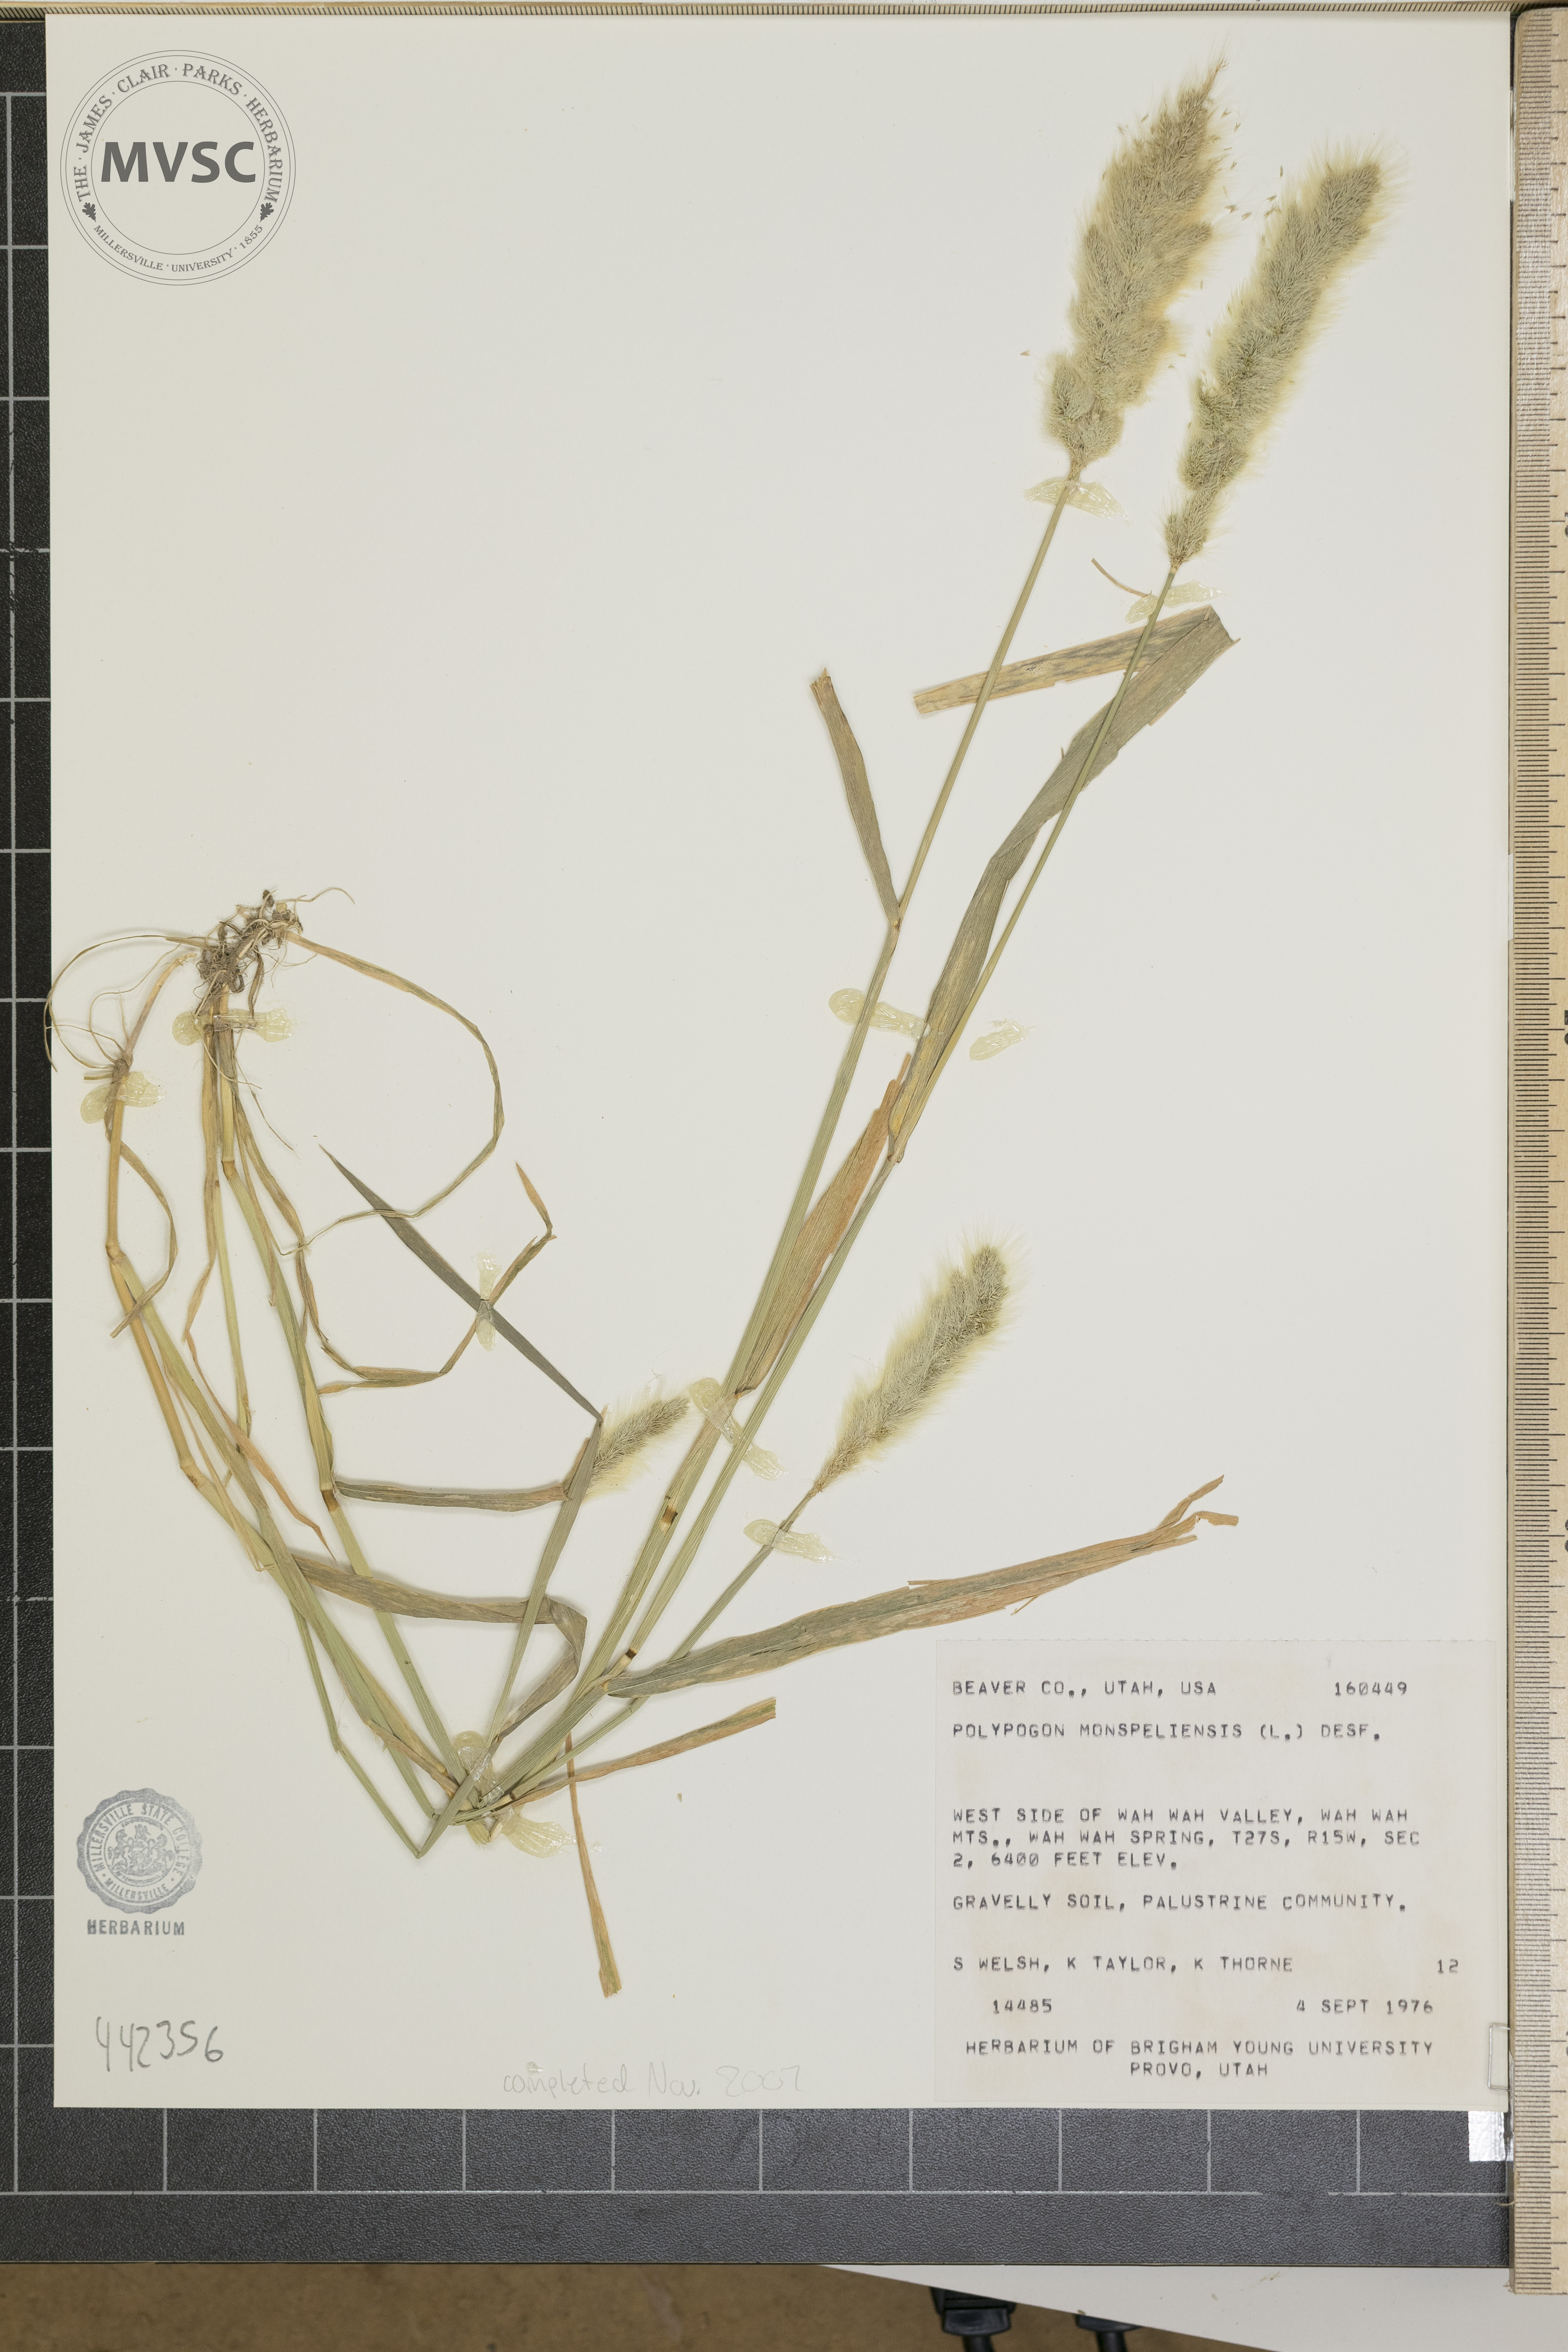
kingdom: Plantae
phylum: Tracheophyta
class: Liliopsida
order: Poales
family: Poaceae
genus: Polypogon
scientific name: Polypogon monspeliensis
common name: Annual rabbitsfoot grass
